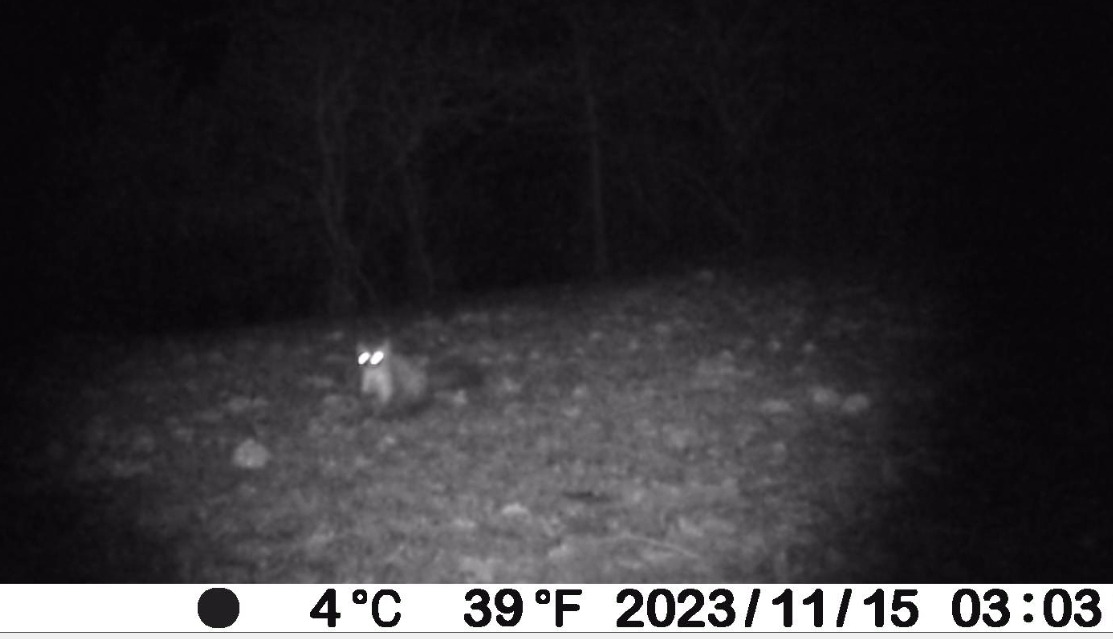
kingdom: Animalia
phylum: Chordata
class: Mammalia
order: Carnivora
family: Mustelidae
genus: Martes
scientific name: Martes foina
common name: Husmår
